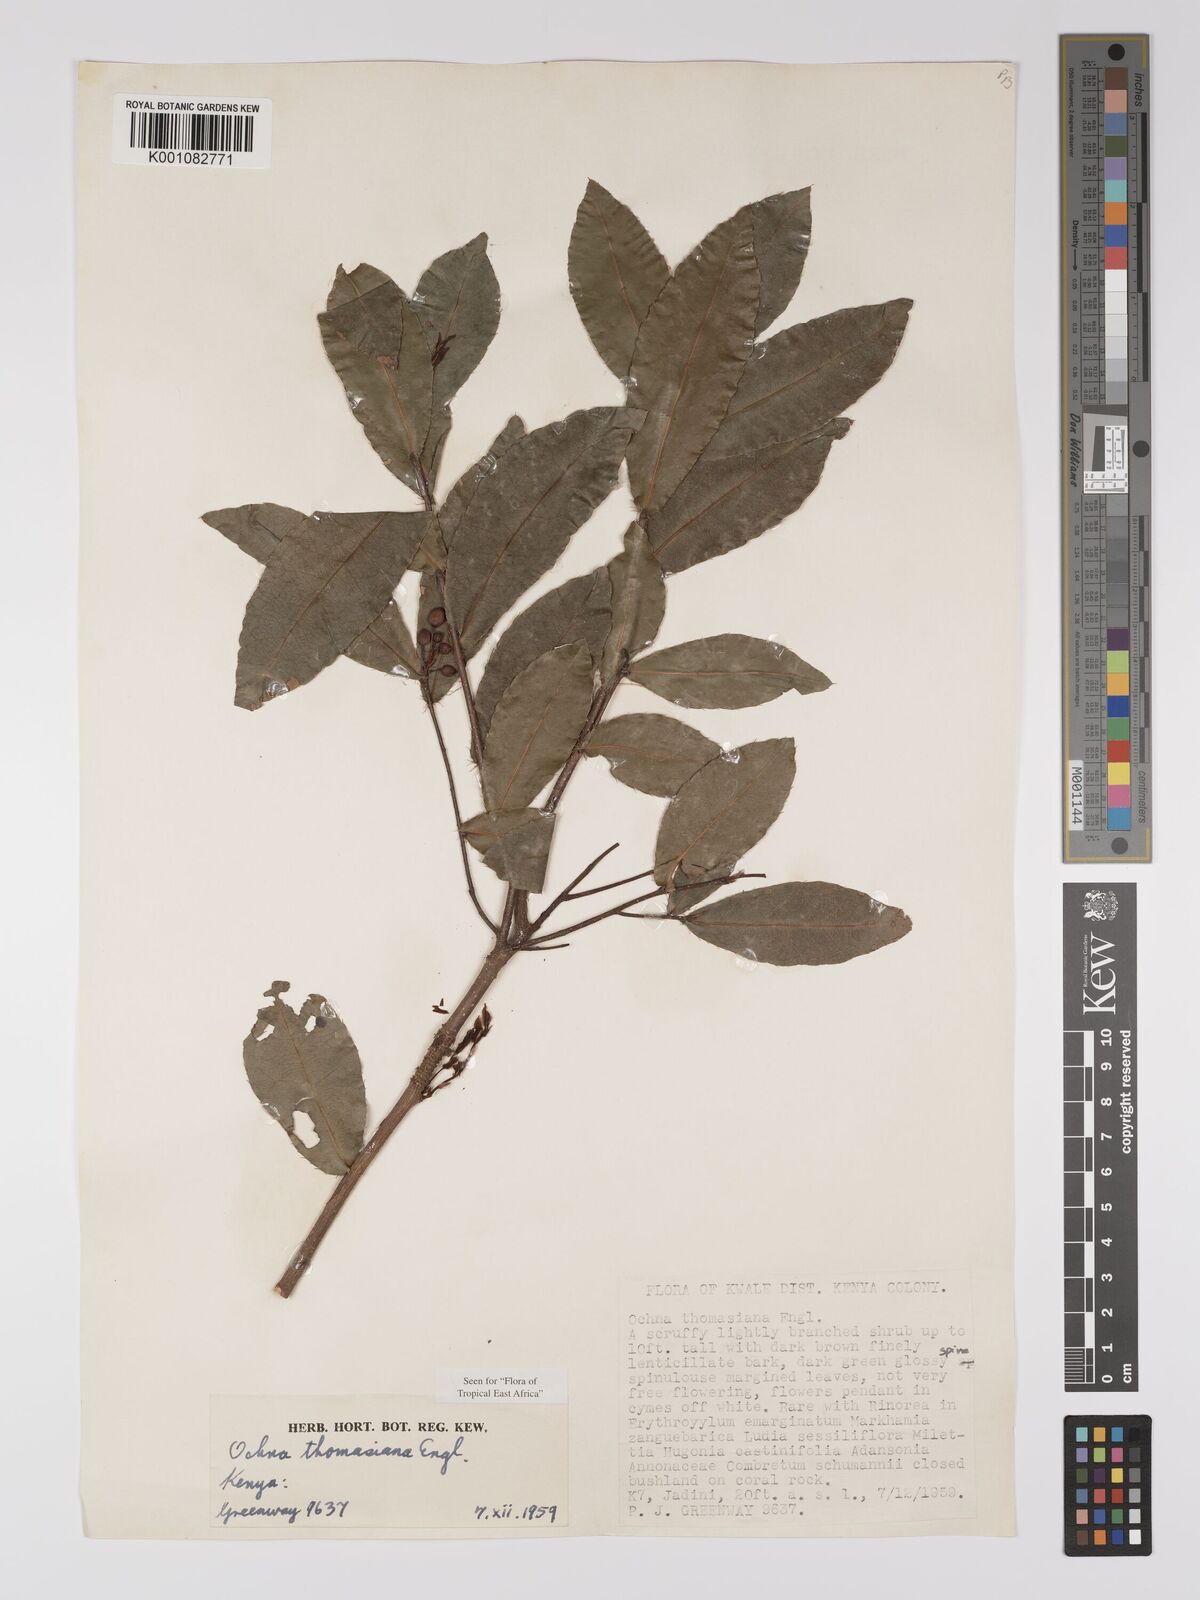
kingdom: Plantae
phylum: Tracheophyta
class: Magnoliopsida
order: Malpighiales
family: Ochnaceae
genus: Ochna
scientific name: Ochna thomasiana
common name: Thomas' bird's-eye bush
